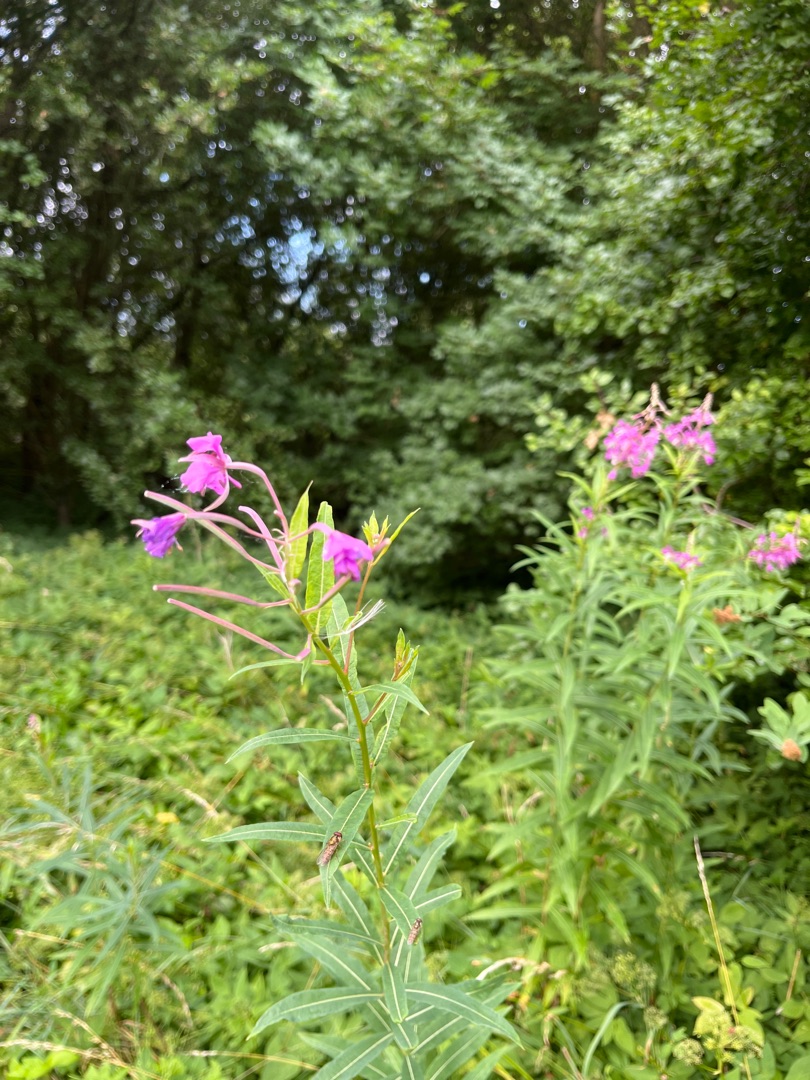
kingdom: Plantae
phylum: Tracheophyta
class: Magnoliopsida
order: Myrtales
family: Onagraceae
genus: Chamaenerion
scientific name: Chamaenerion angustifolium
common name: Gederams
